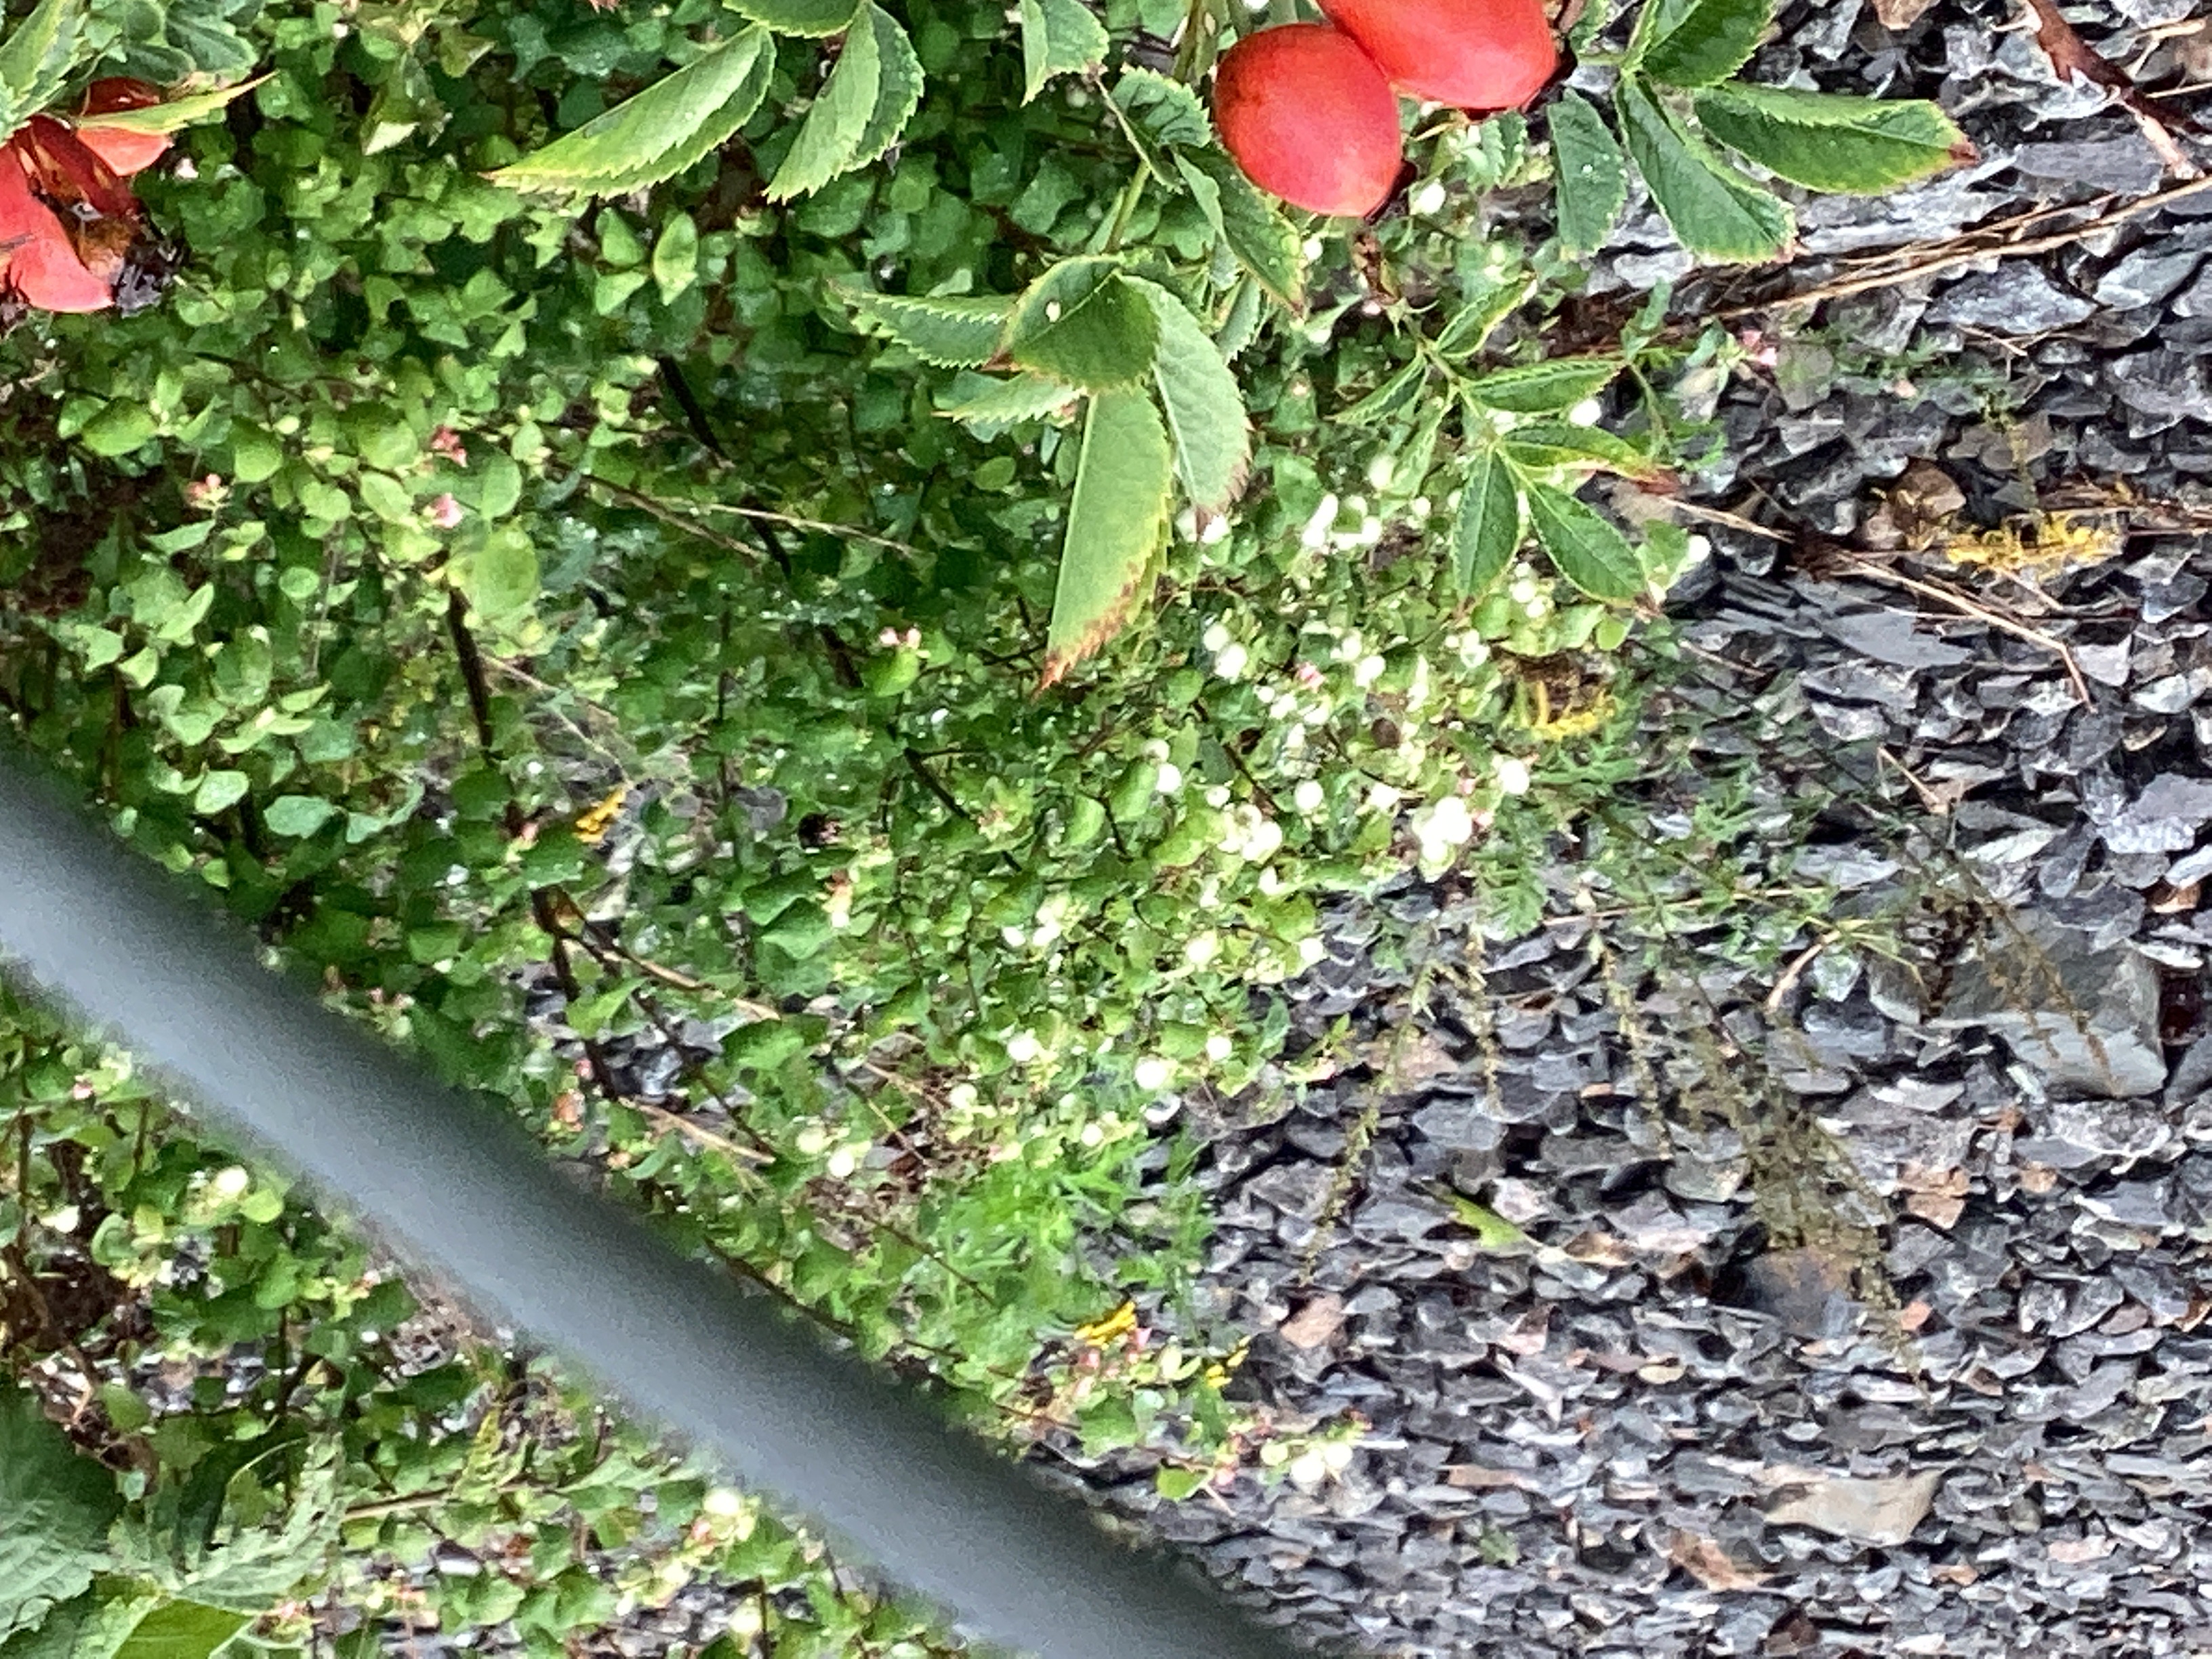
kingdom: Plantae
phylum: Tracheophyta
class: Magnoliopsida
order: Dipsacales
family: Caprifoliaceae
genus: Symphoricarpos
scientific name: Symphoricarpos albus
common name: snøbær
